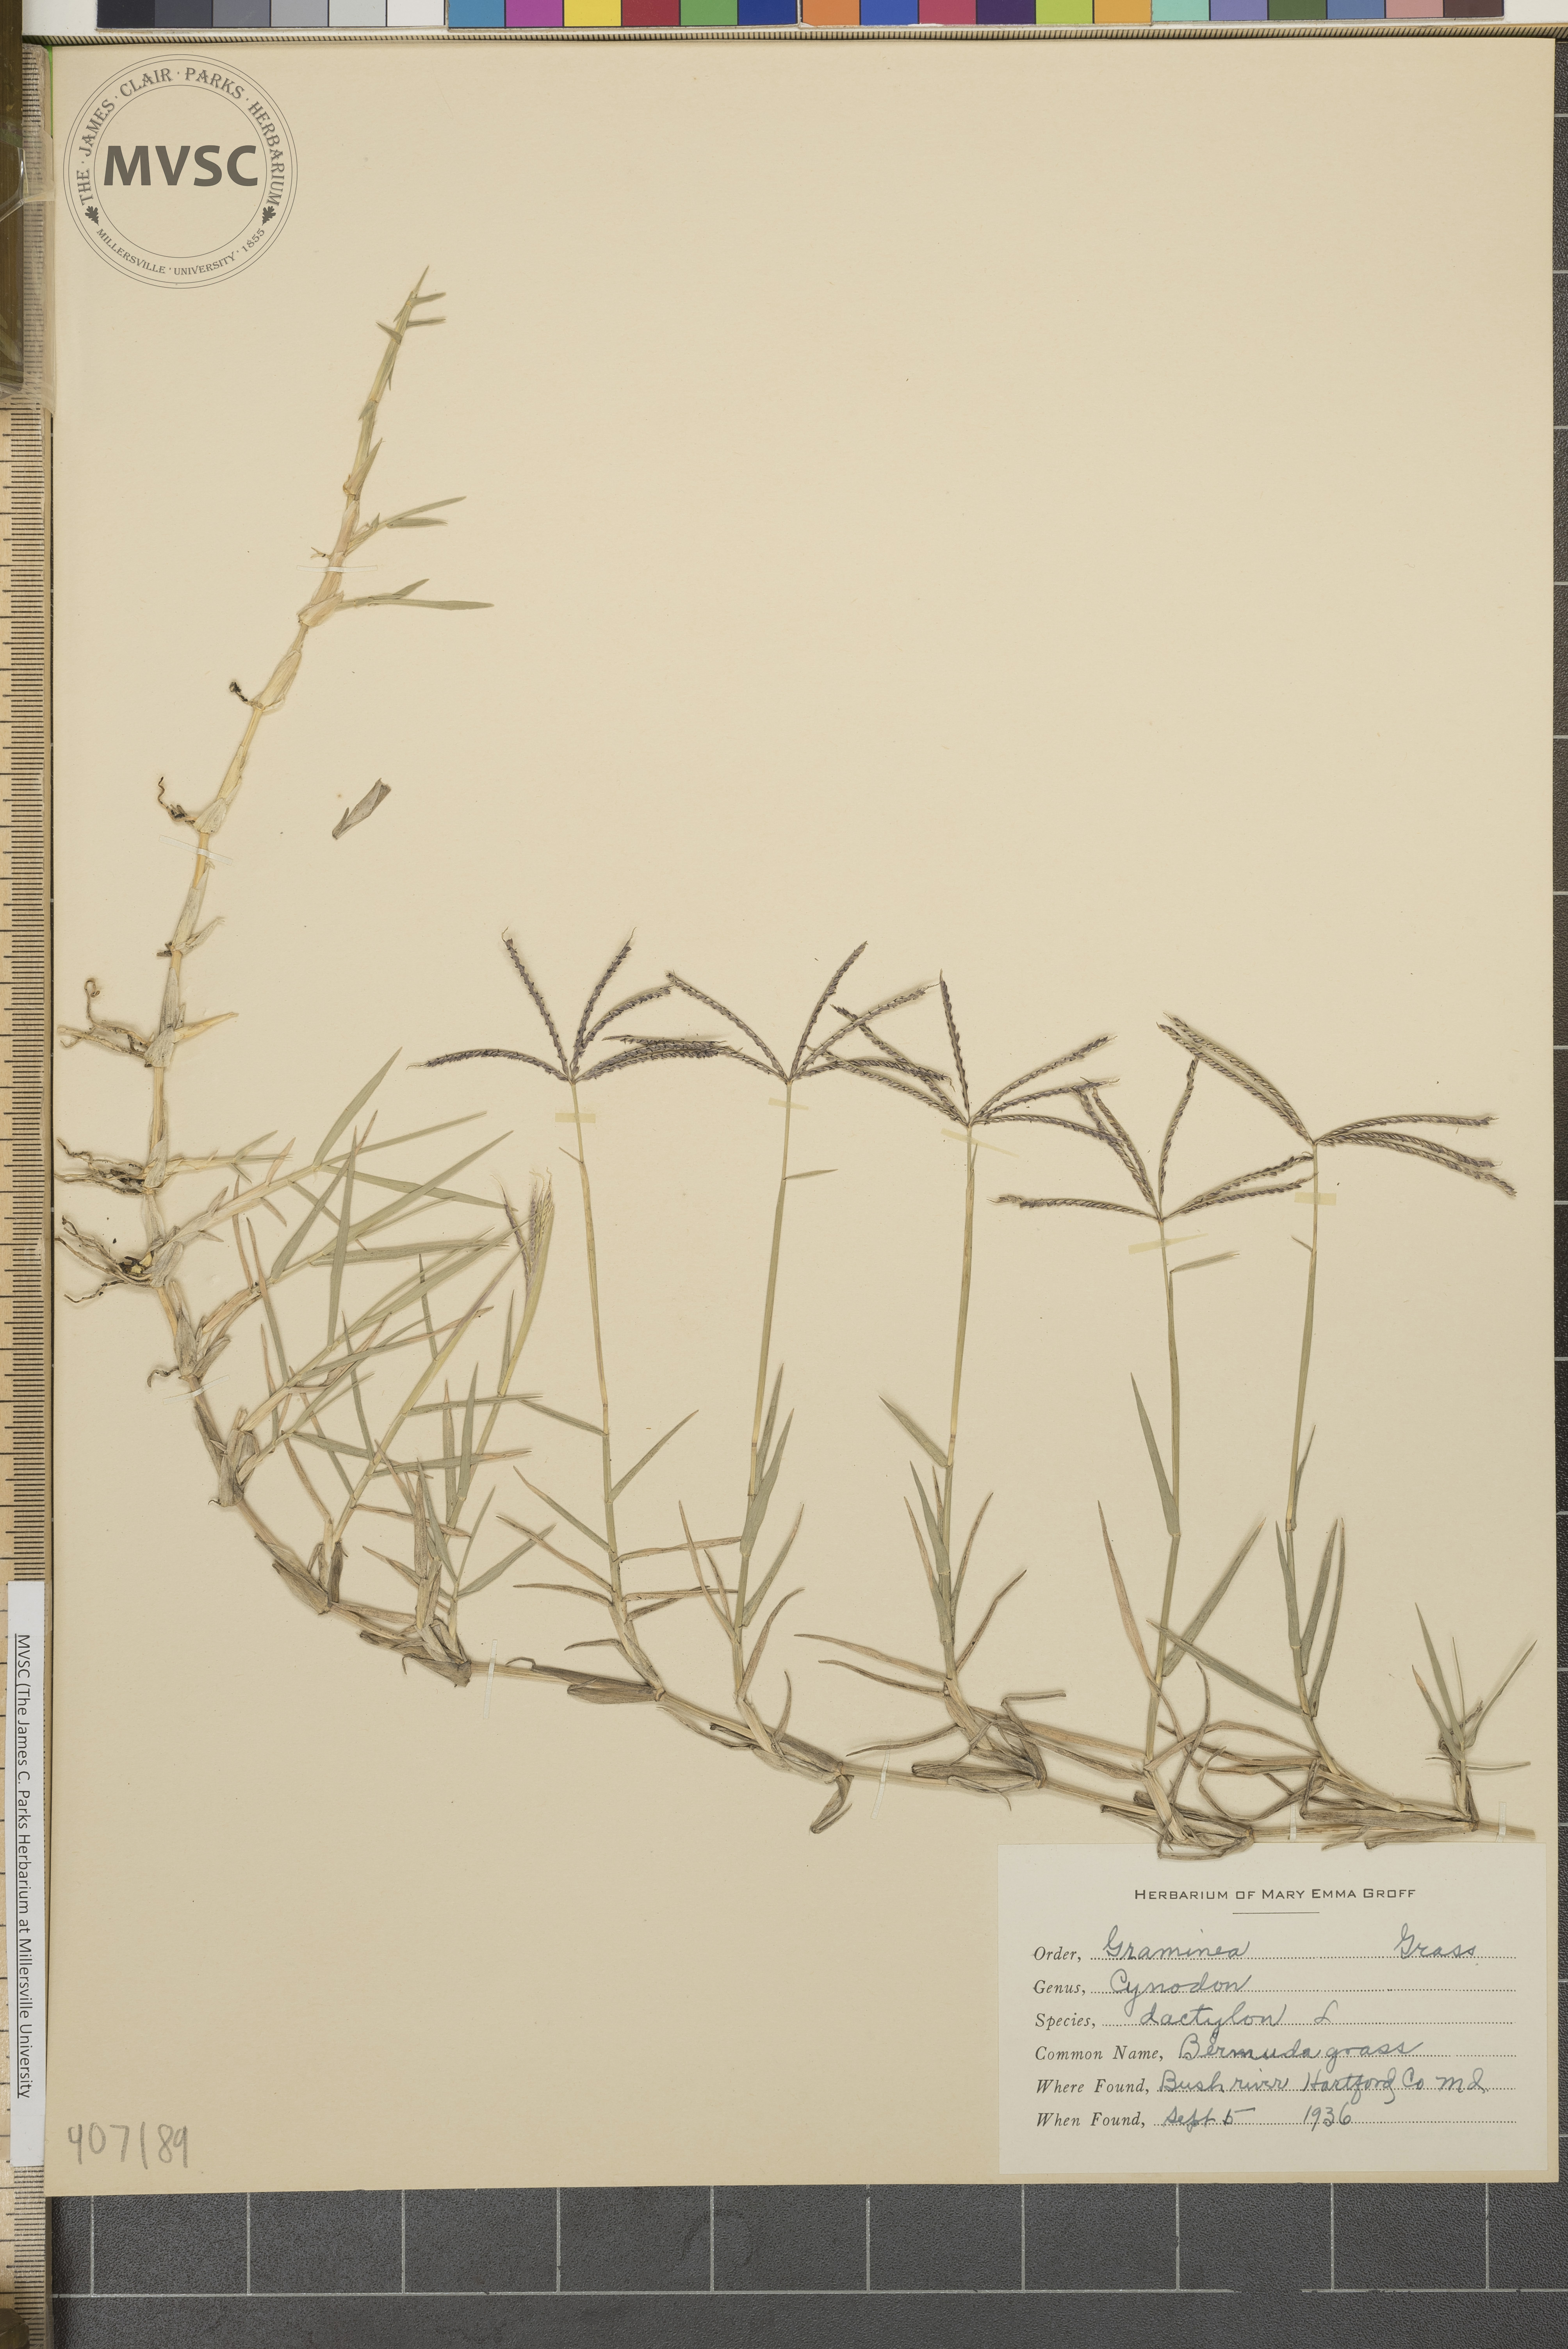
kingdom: Plantae
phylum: Tracheophyta
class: Liliopsida
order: Poales
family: Poaceae
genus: Cynodon
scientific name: Cynodon dactylon
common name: Bermuda grass
